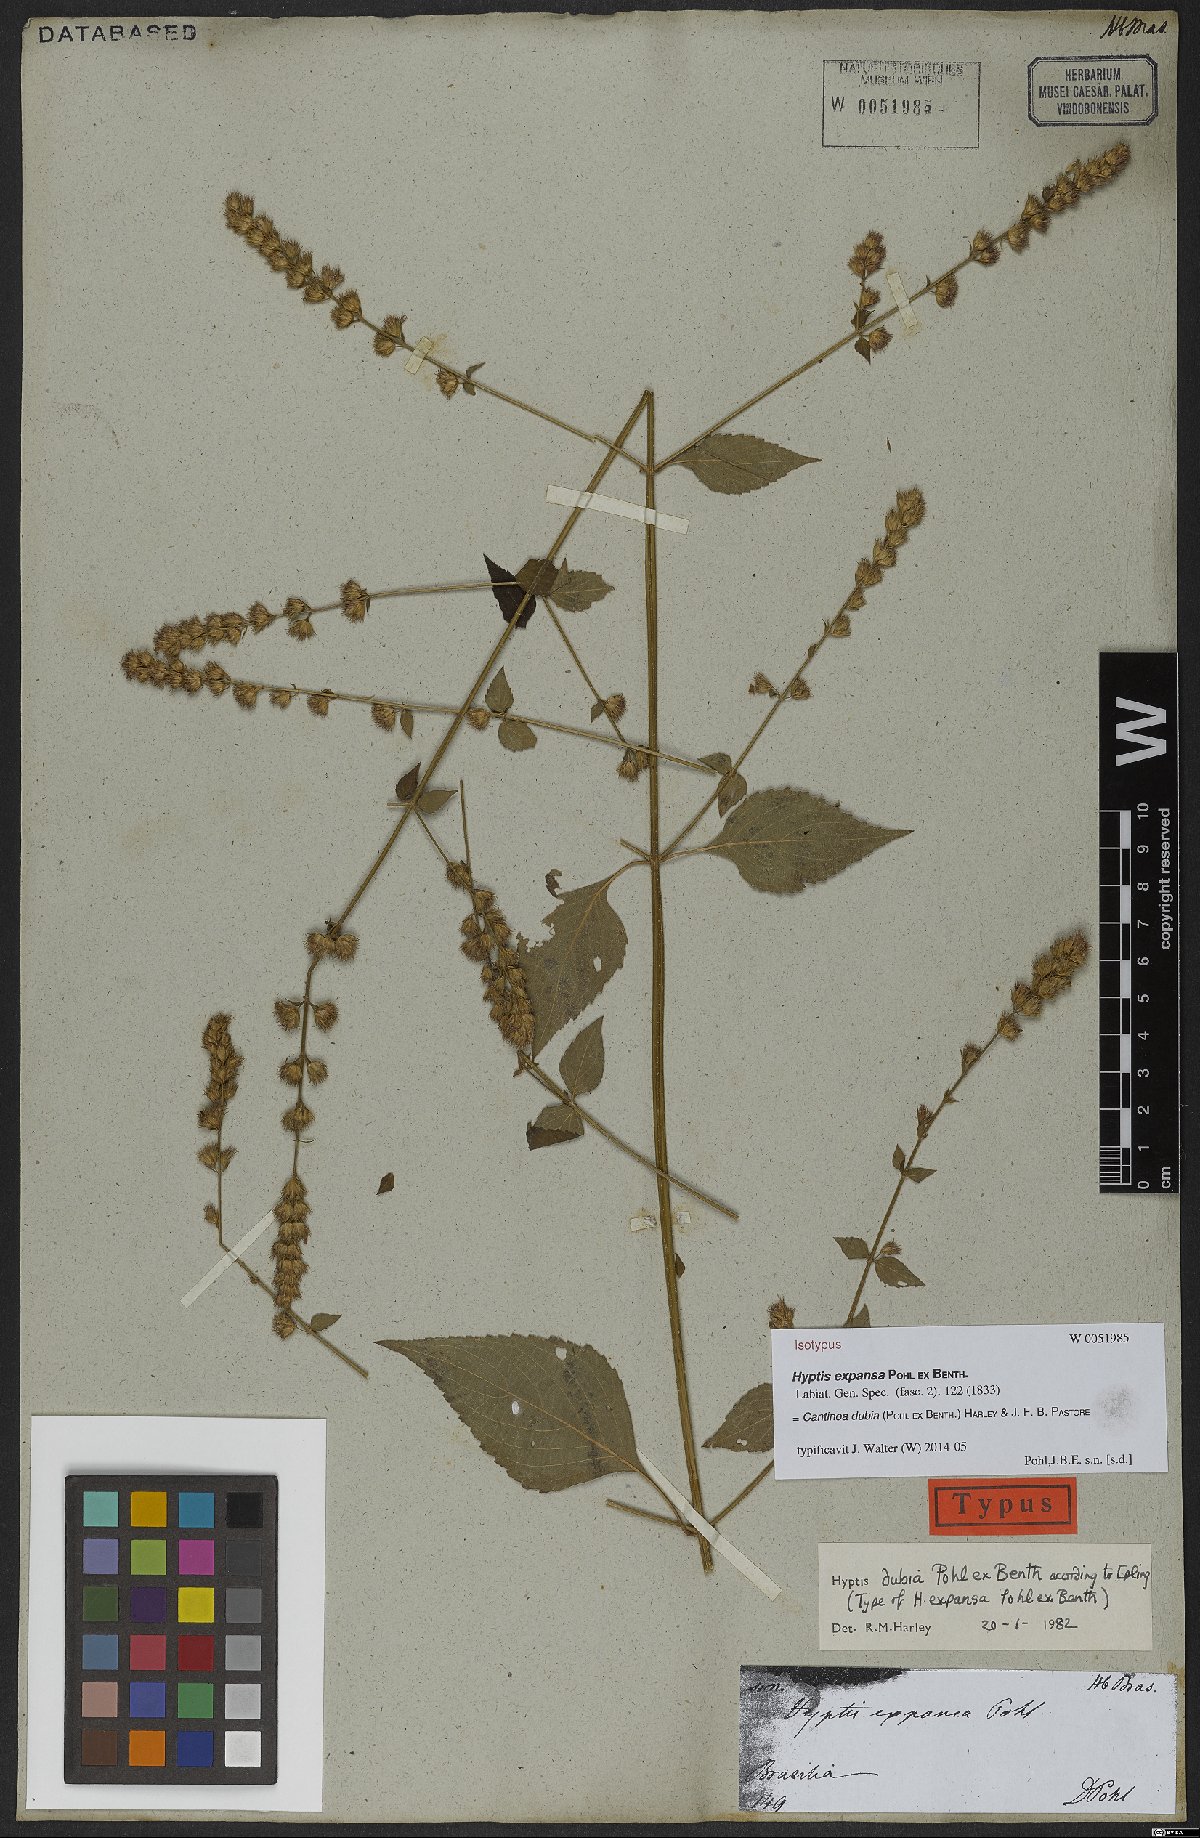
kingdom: Plantae
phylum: Tracheophyta
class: Magnoliopsida
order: Lamiales
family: Lamiaceae
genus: Cantinoa
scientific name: Cantinoa dubia
